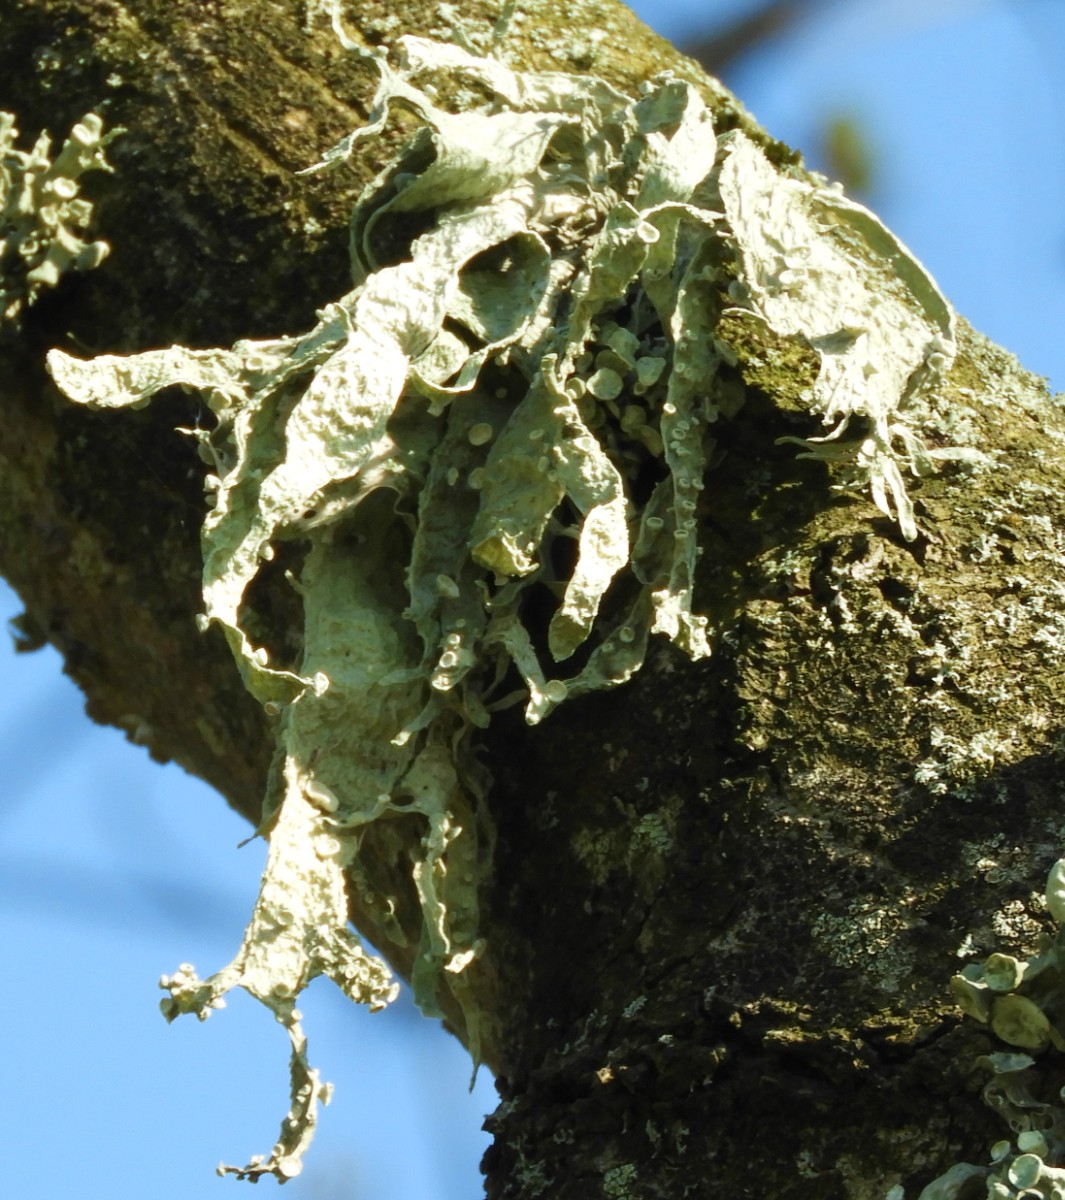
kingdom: Fungi
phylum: Ascomycota
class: Lecanoromycetes
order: Lecanorales
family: Ramalinaceae
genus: Ramalina
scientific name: Ramalina fraxinea
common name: stor grenlav
